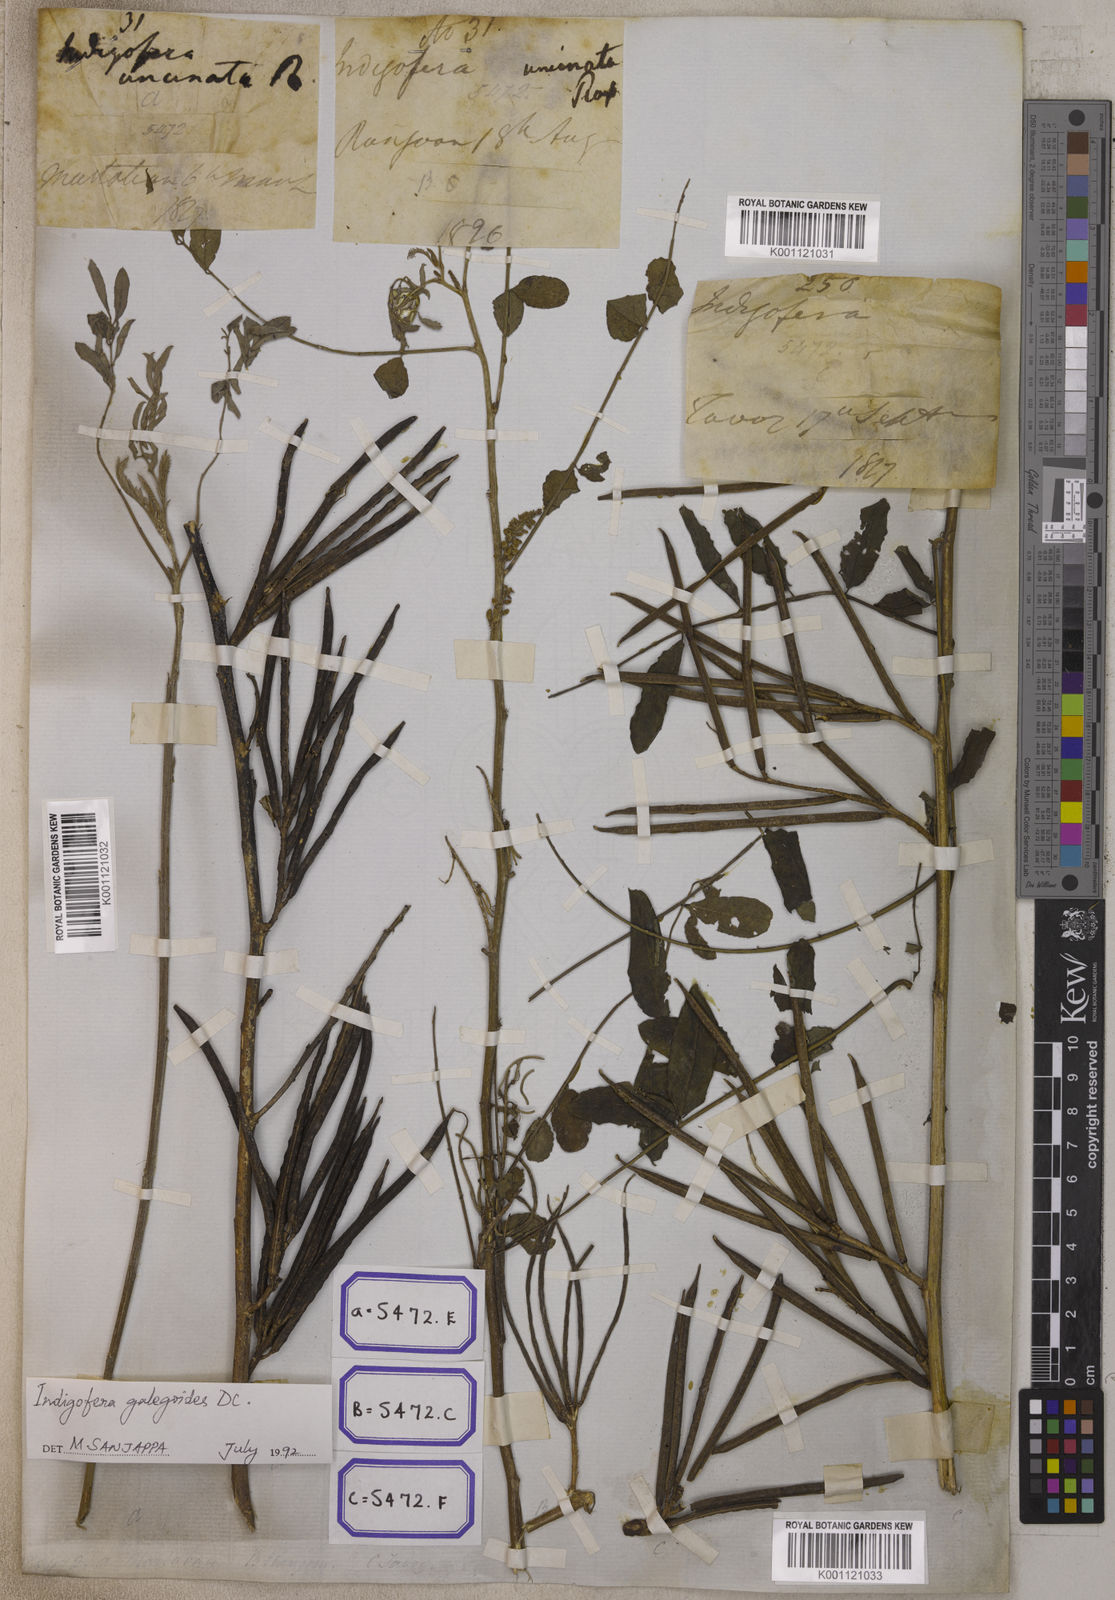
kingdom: Plantae
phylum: Tracheophyta
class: Magnoliopsida
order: Fabales
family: Fabaceae
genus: Indigofera
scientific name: Indigofera galegoides
